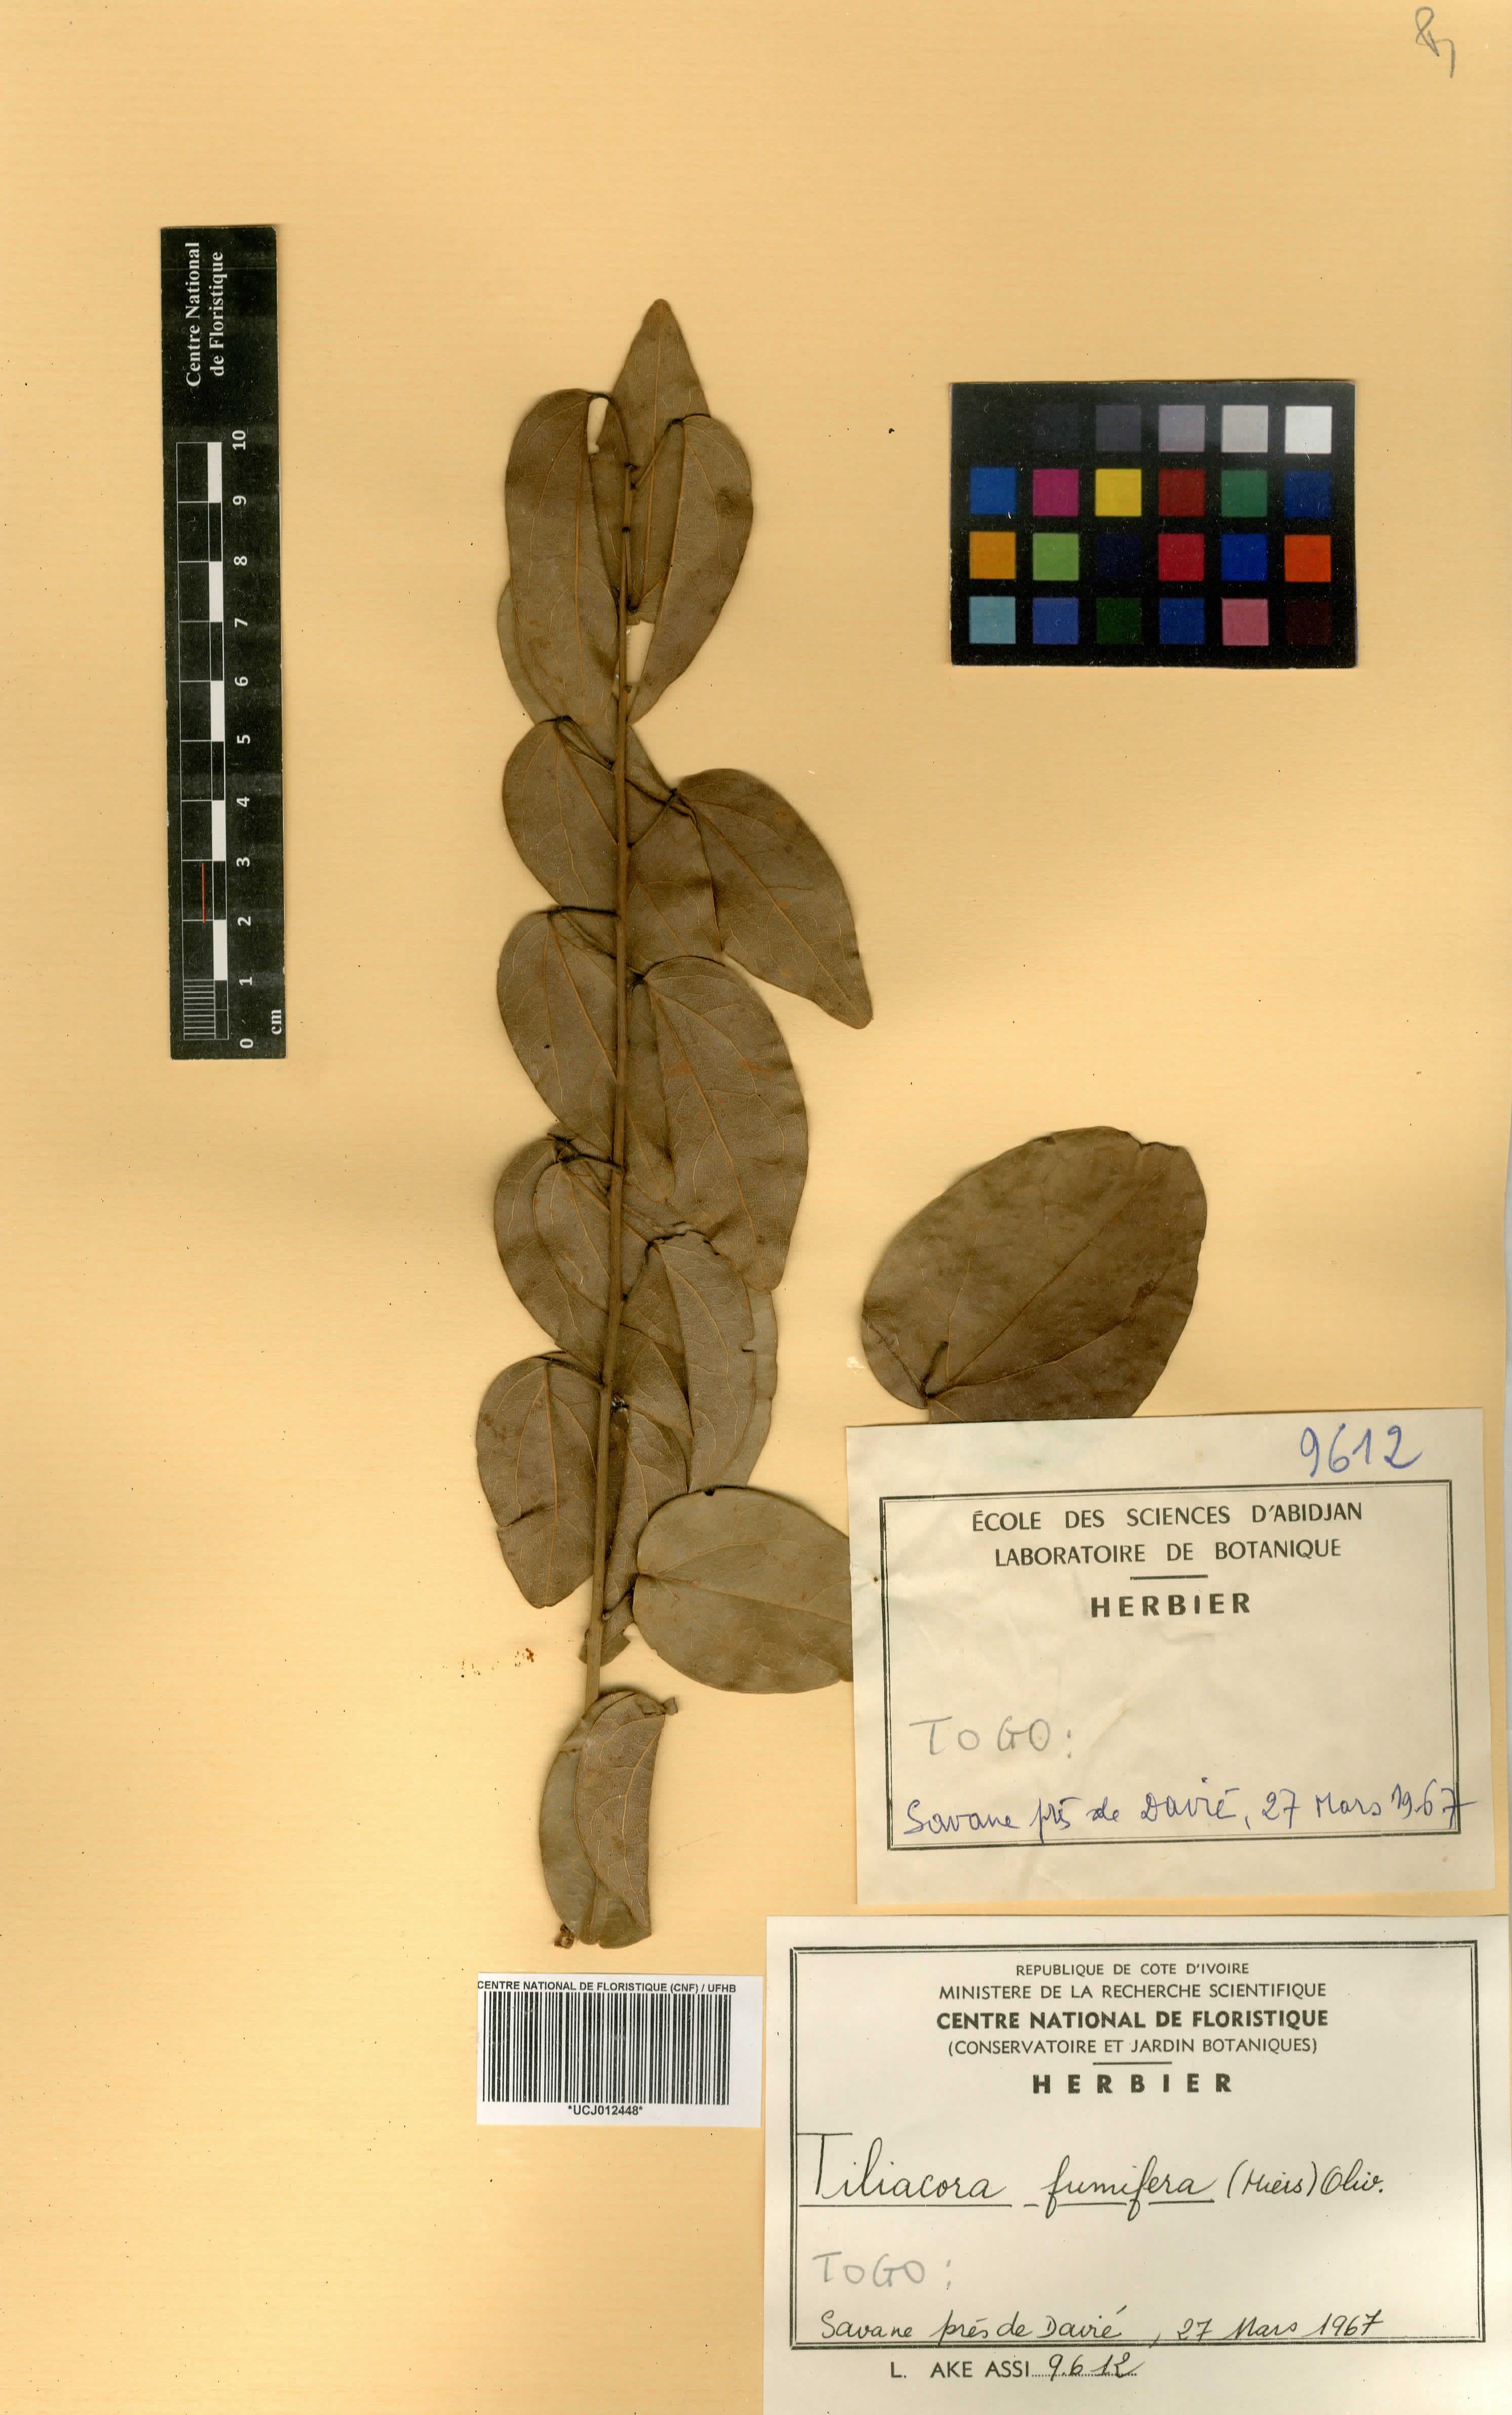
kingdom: Plantae
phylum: Tracheophyta
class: Magnoliopsida
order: Ranunculales
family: Menispermaceae
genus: Tiliacora
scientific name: Tiliacora funifera
